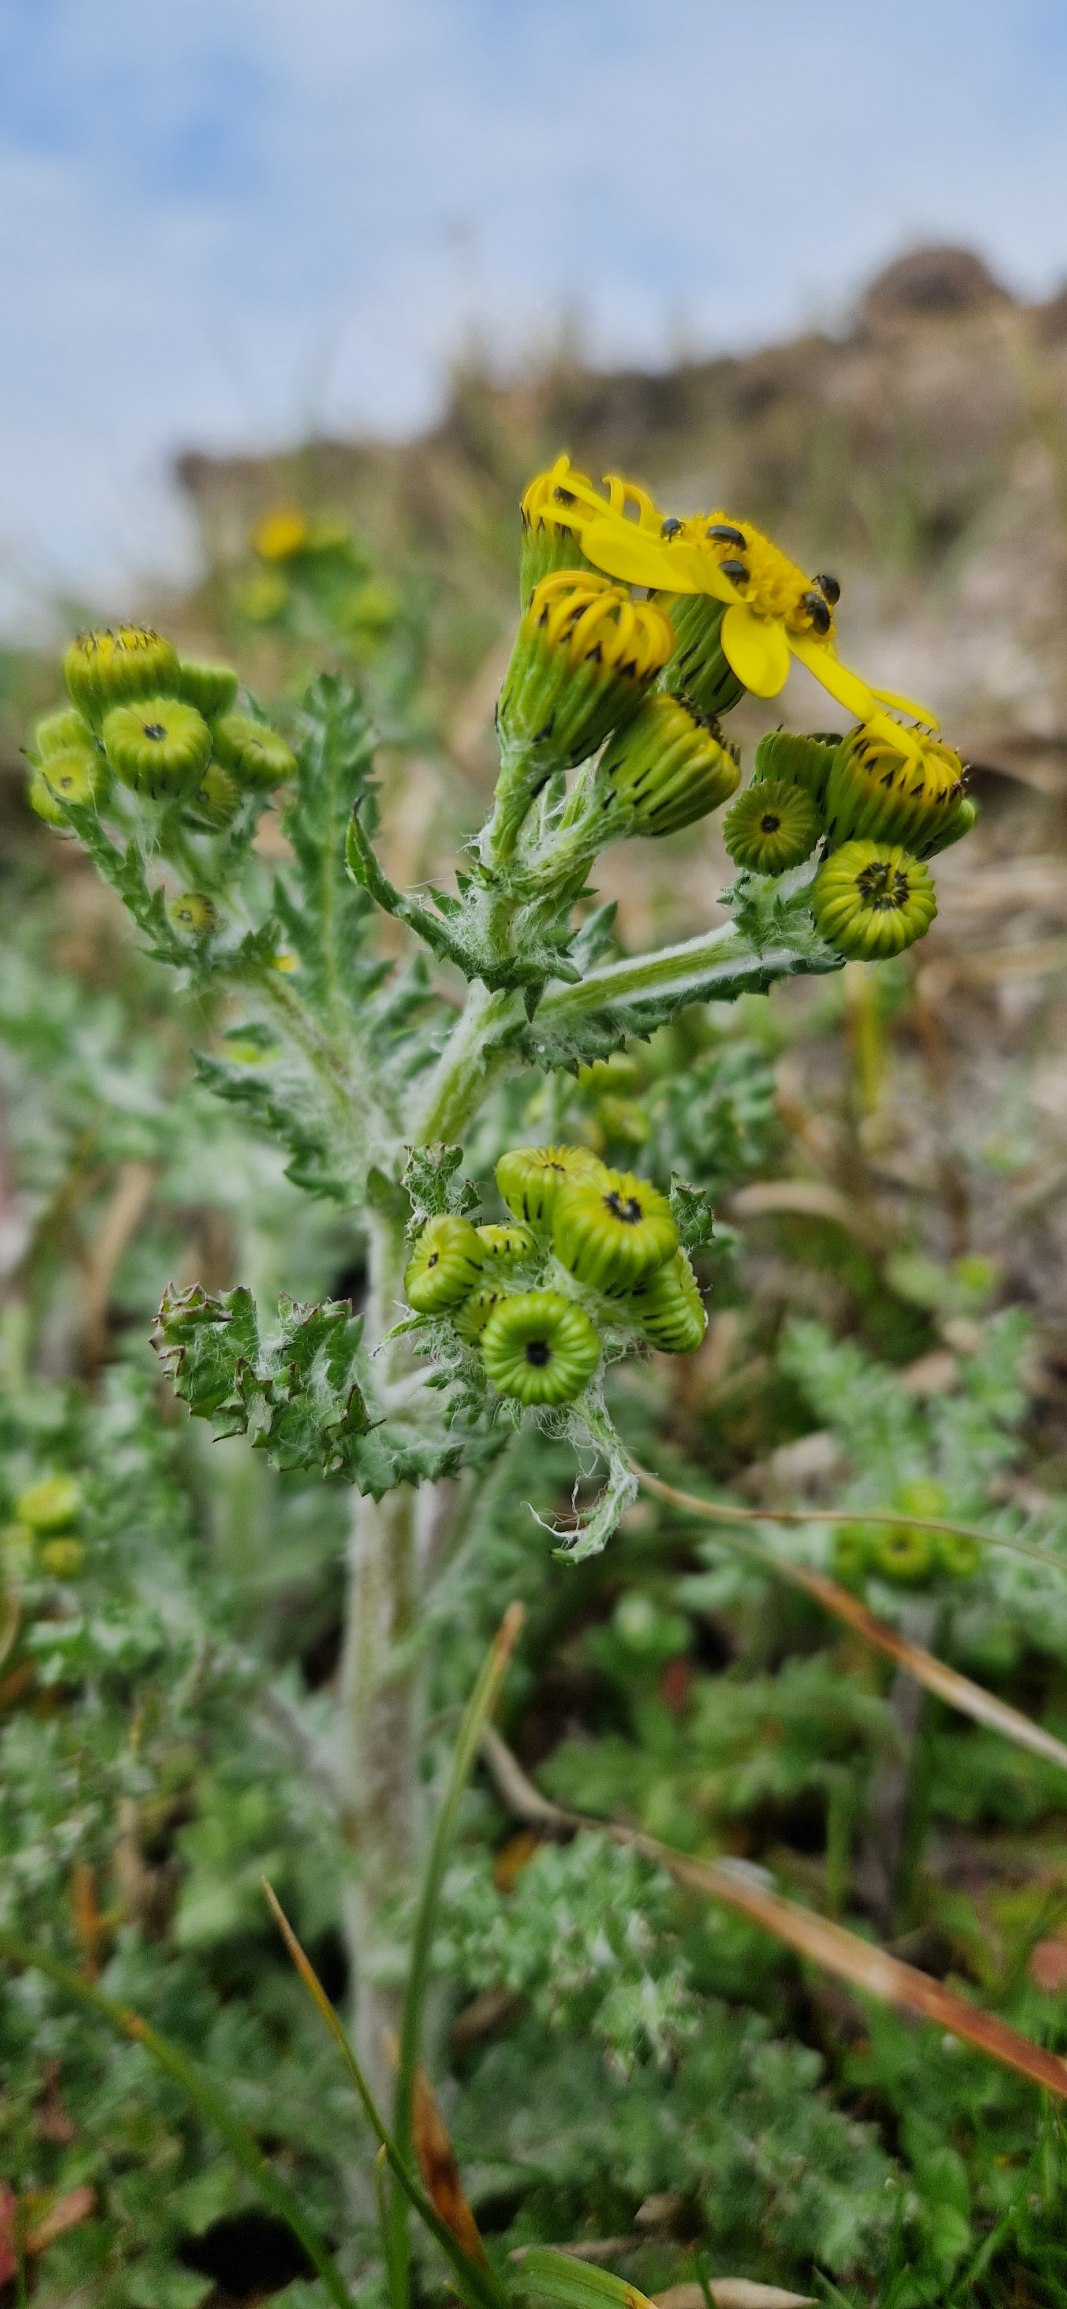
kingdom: Plantae
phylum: Tracheophyta
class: Magnoliopsida
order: Asterales
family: Asteraceae
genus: Senecio
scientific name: Senecio leucanthemifolius
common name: Vår-brandbæger
